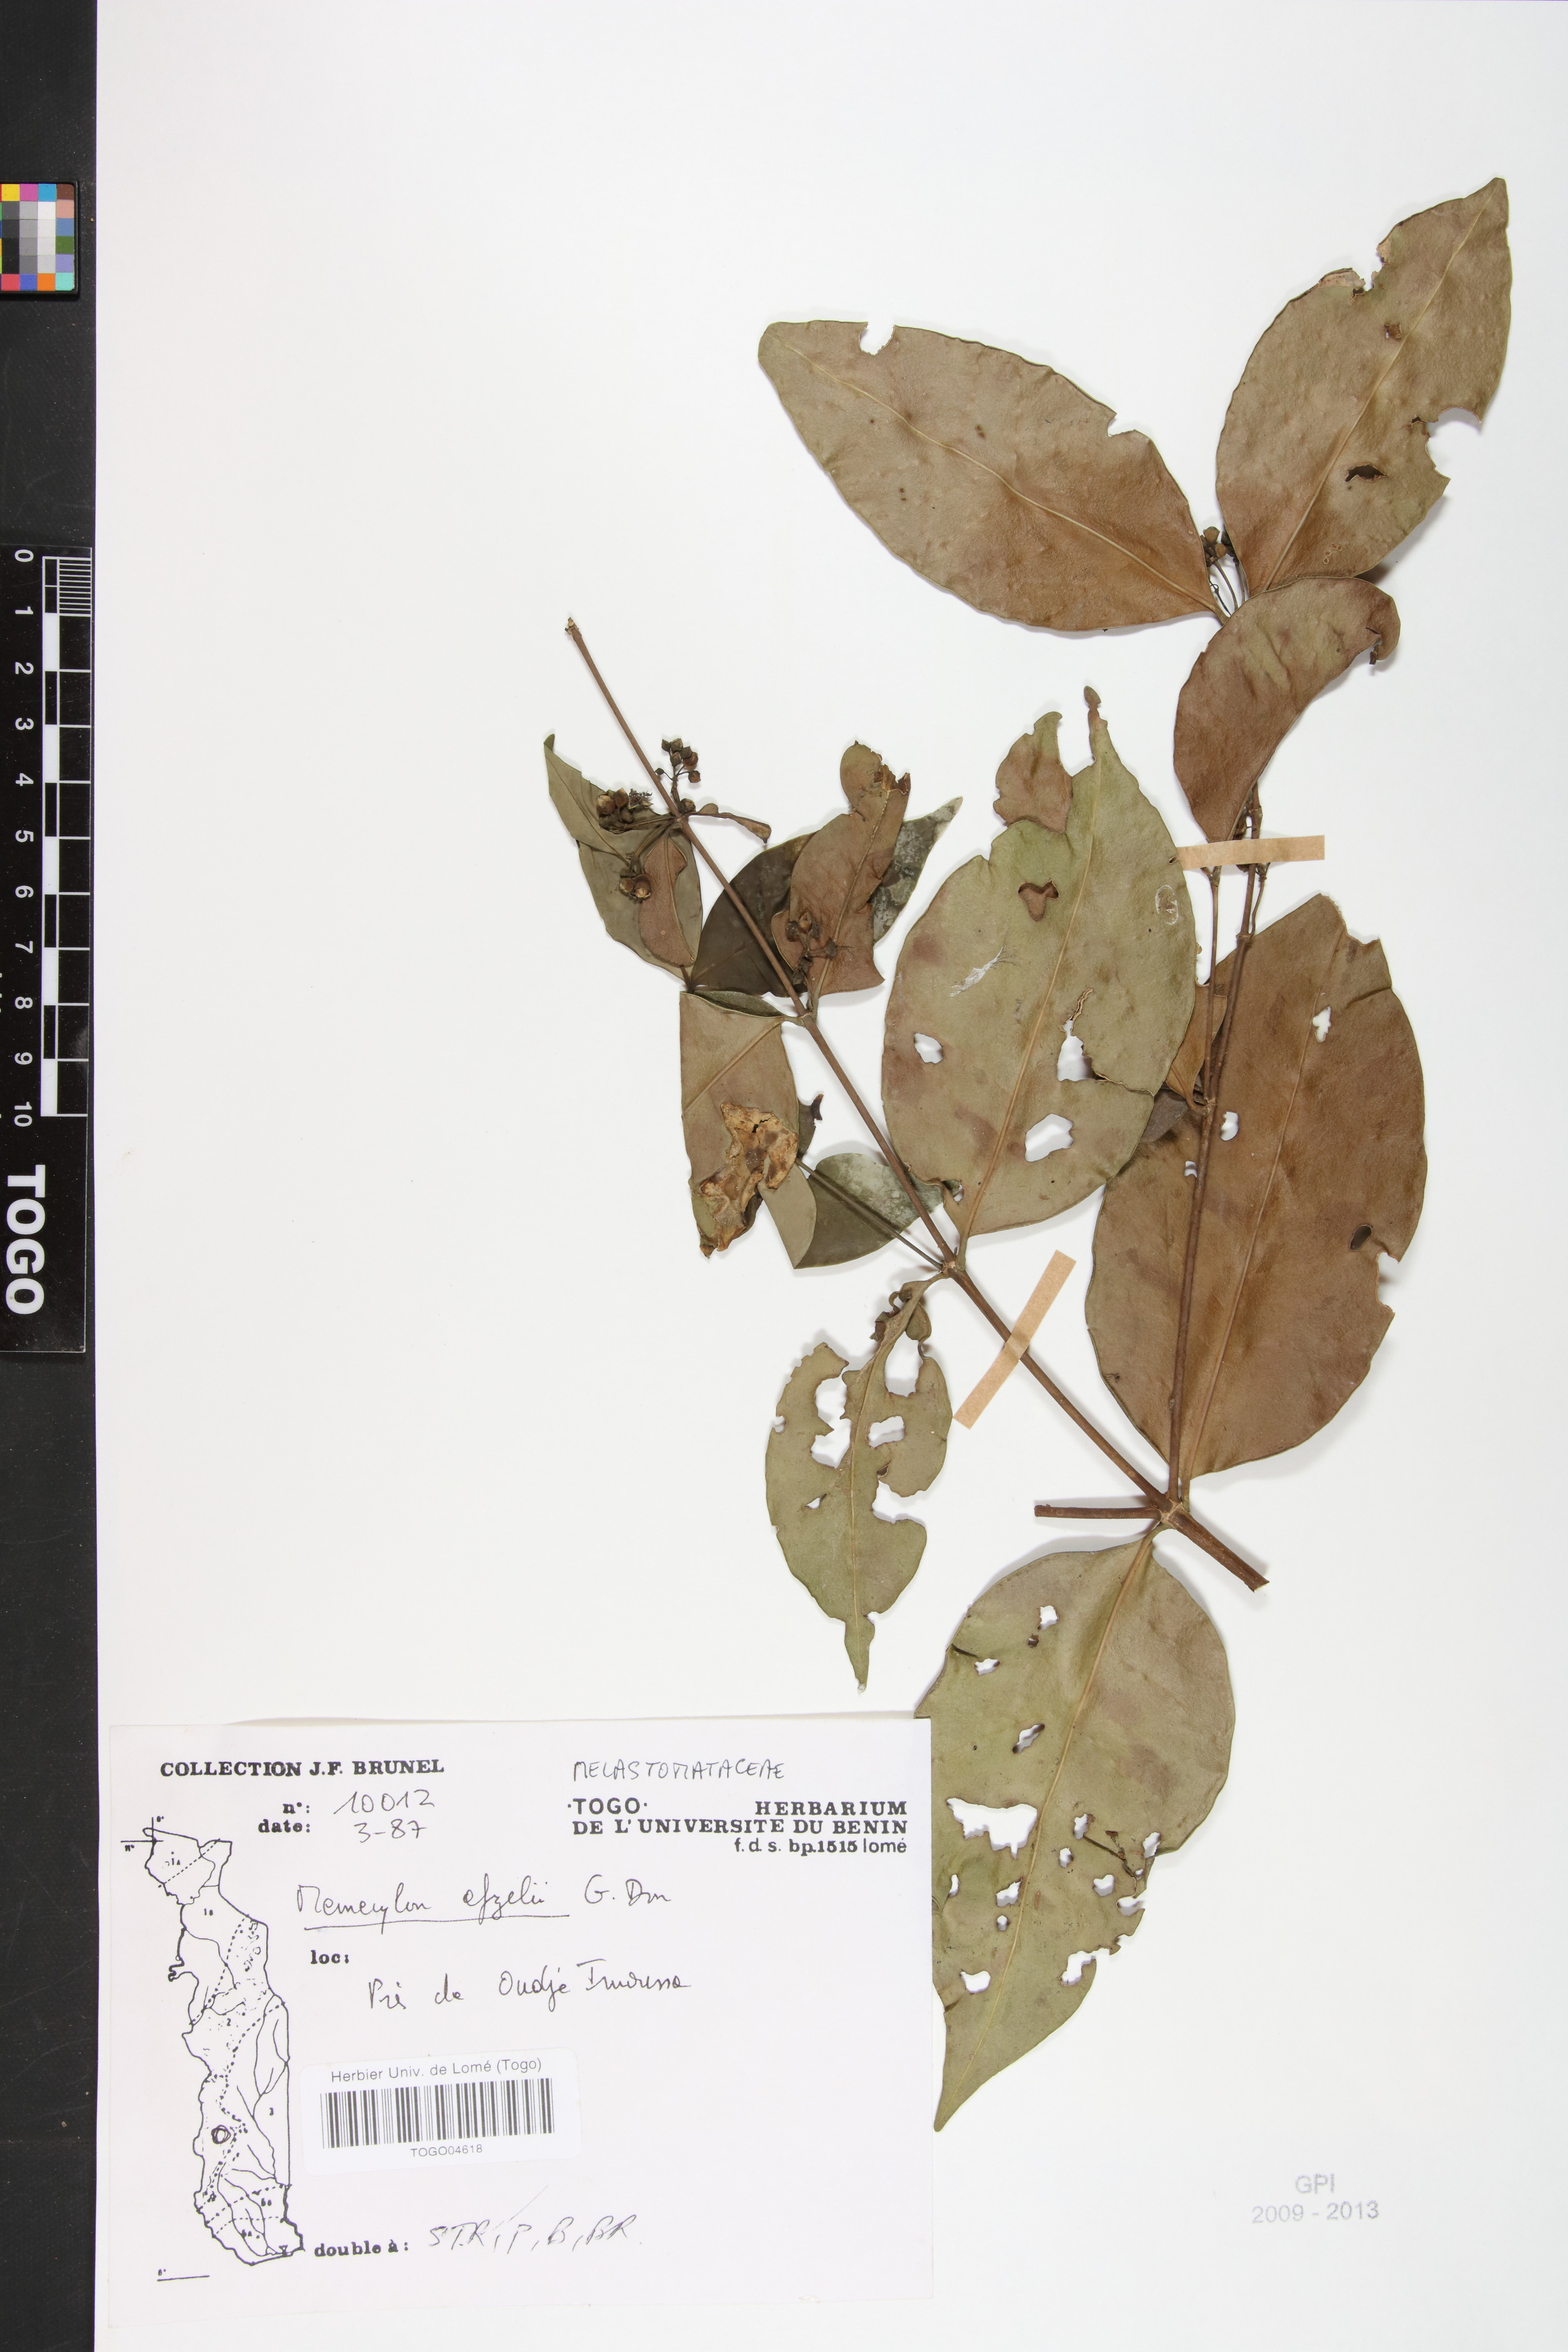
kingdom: Plantae
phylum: Tracheophyta
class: Magnoliopsida
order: Myrtales
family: Melastomataceae
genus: Memecylon
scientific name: Memecylon afzelii
